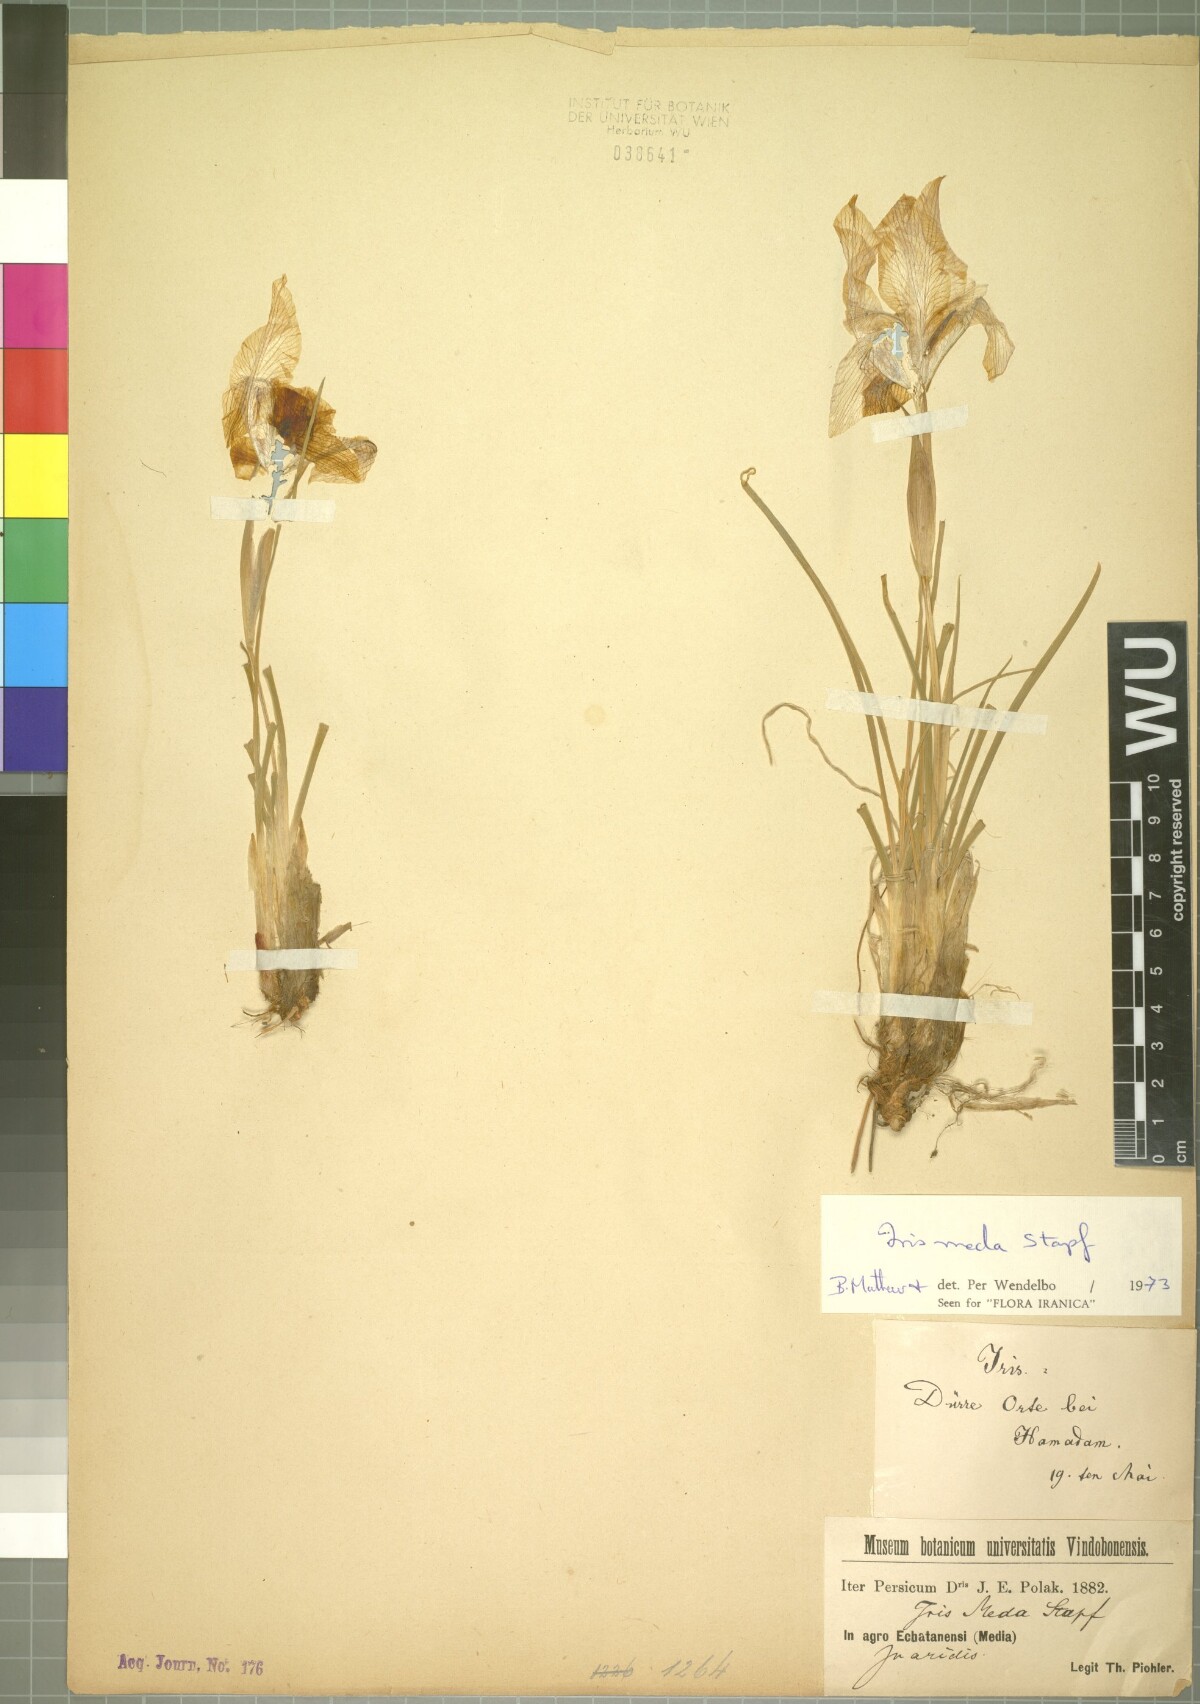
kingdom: Plantae
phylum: Tracheophyta
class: Liliopsida
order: Asparagales
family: Iridaceae
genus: Iris
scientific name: Iris meda
